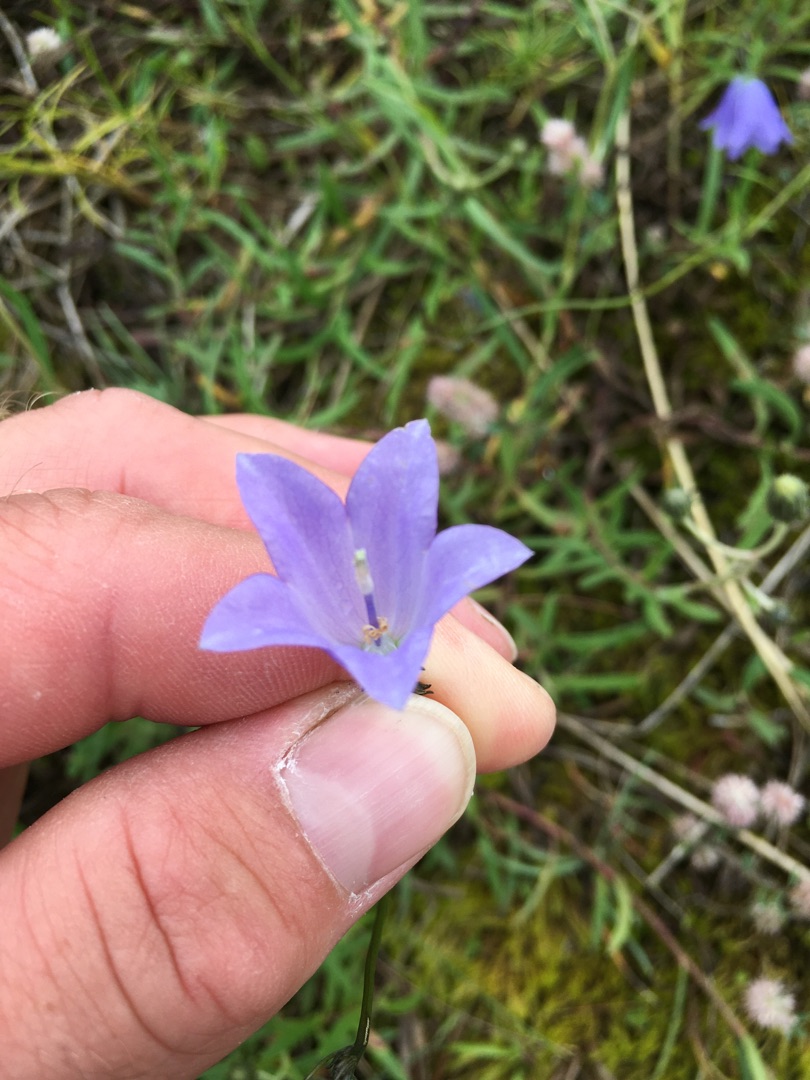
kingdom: Plantae
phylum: Tracheophyta
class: Magnoliopsida
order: Asterales
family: Campanulaceae
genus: Campanula
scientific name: Campanula rotundifolia
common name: Liden klokke
